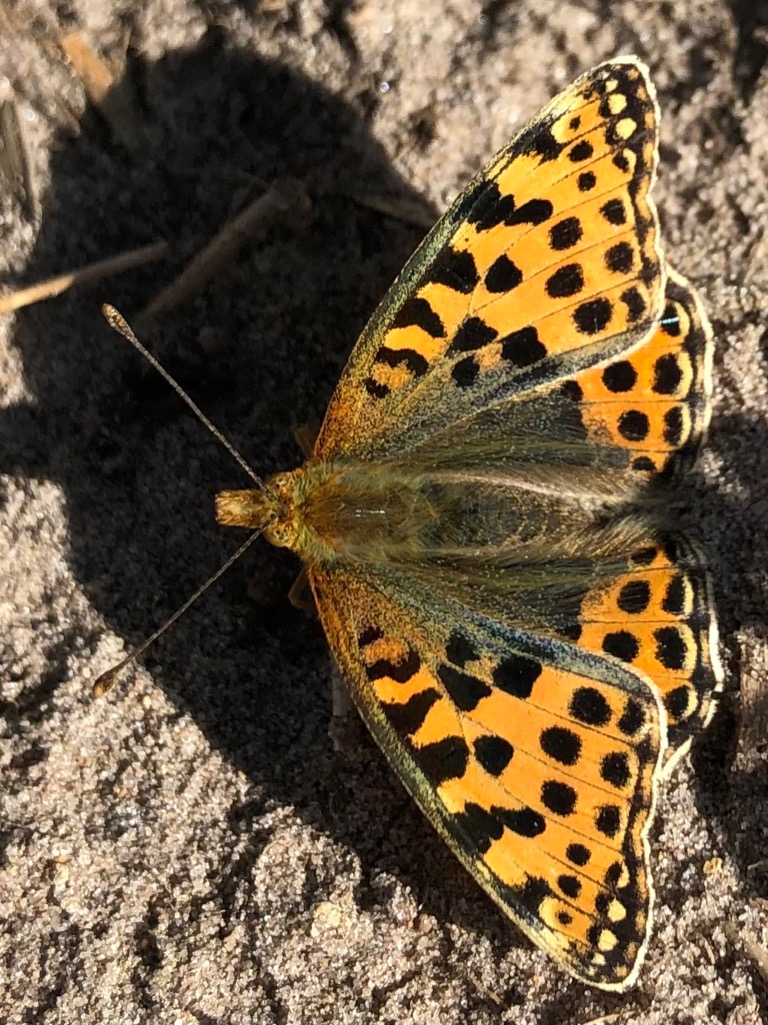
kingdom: Animalia
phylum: Arthropoda
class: Insecta
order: Lepidoptera
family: Nymphalidae
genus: Issoria
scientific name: Issoria lathonia
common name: Storplettet perlemorsommerfugl
